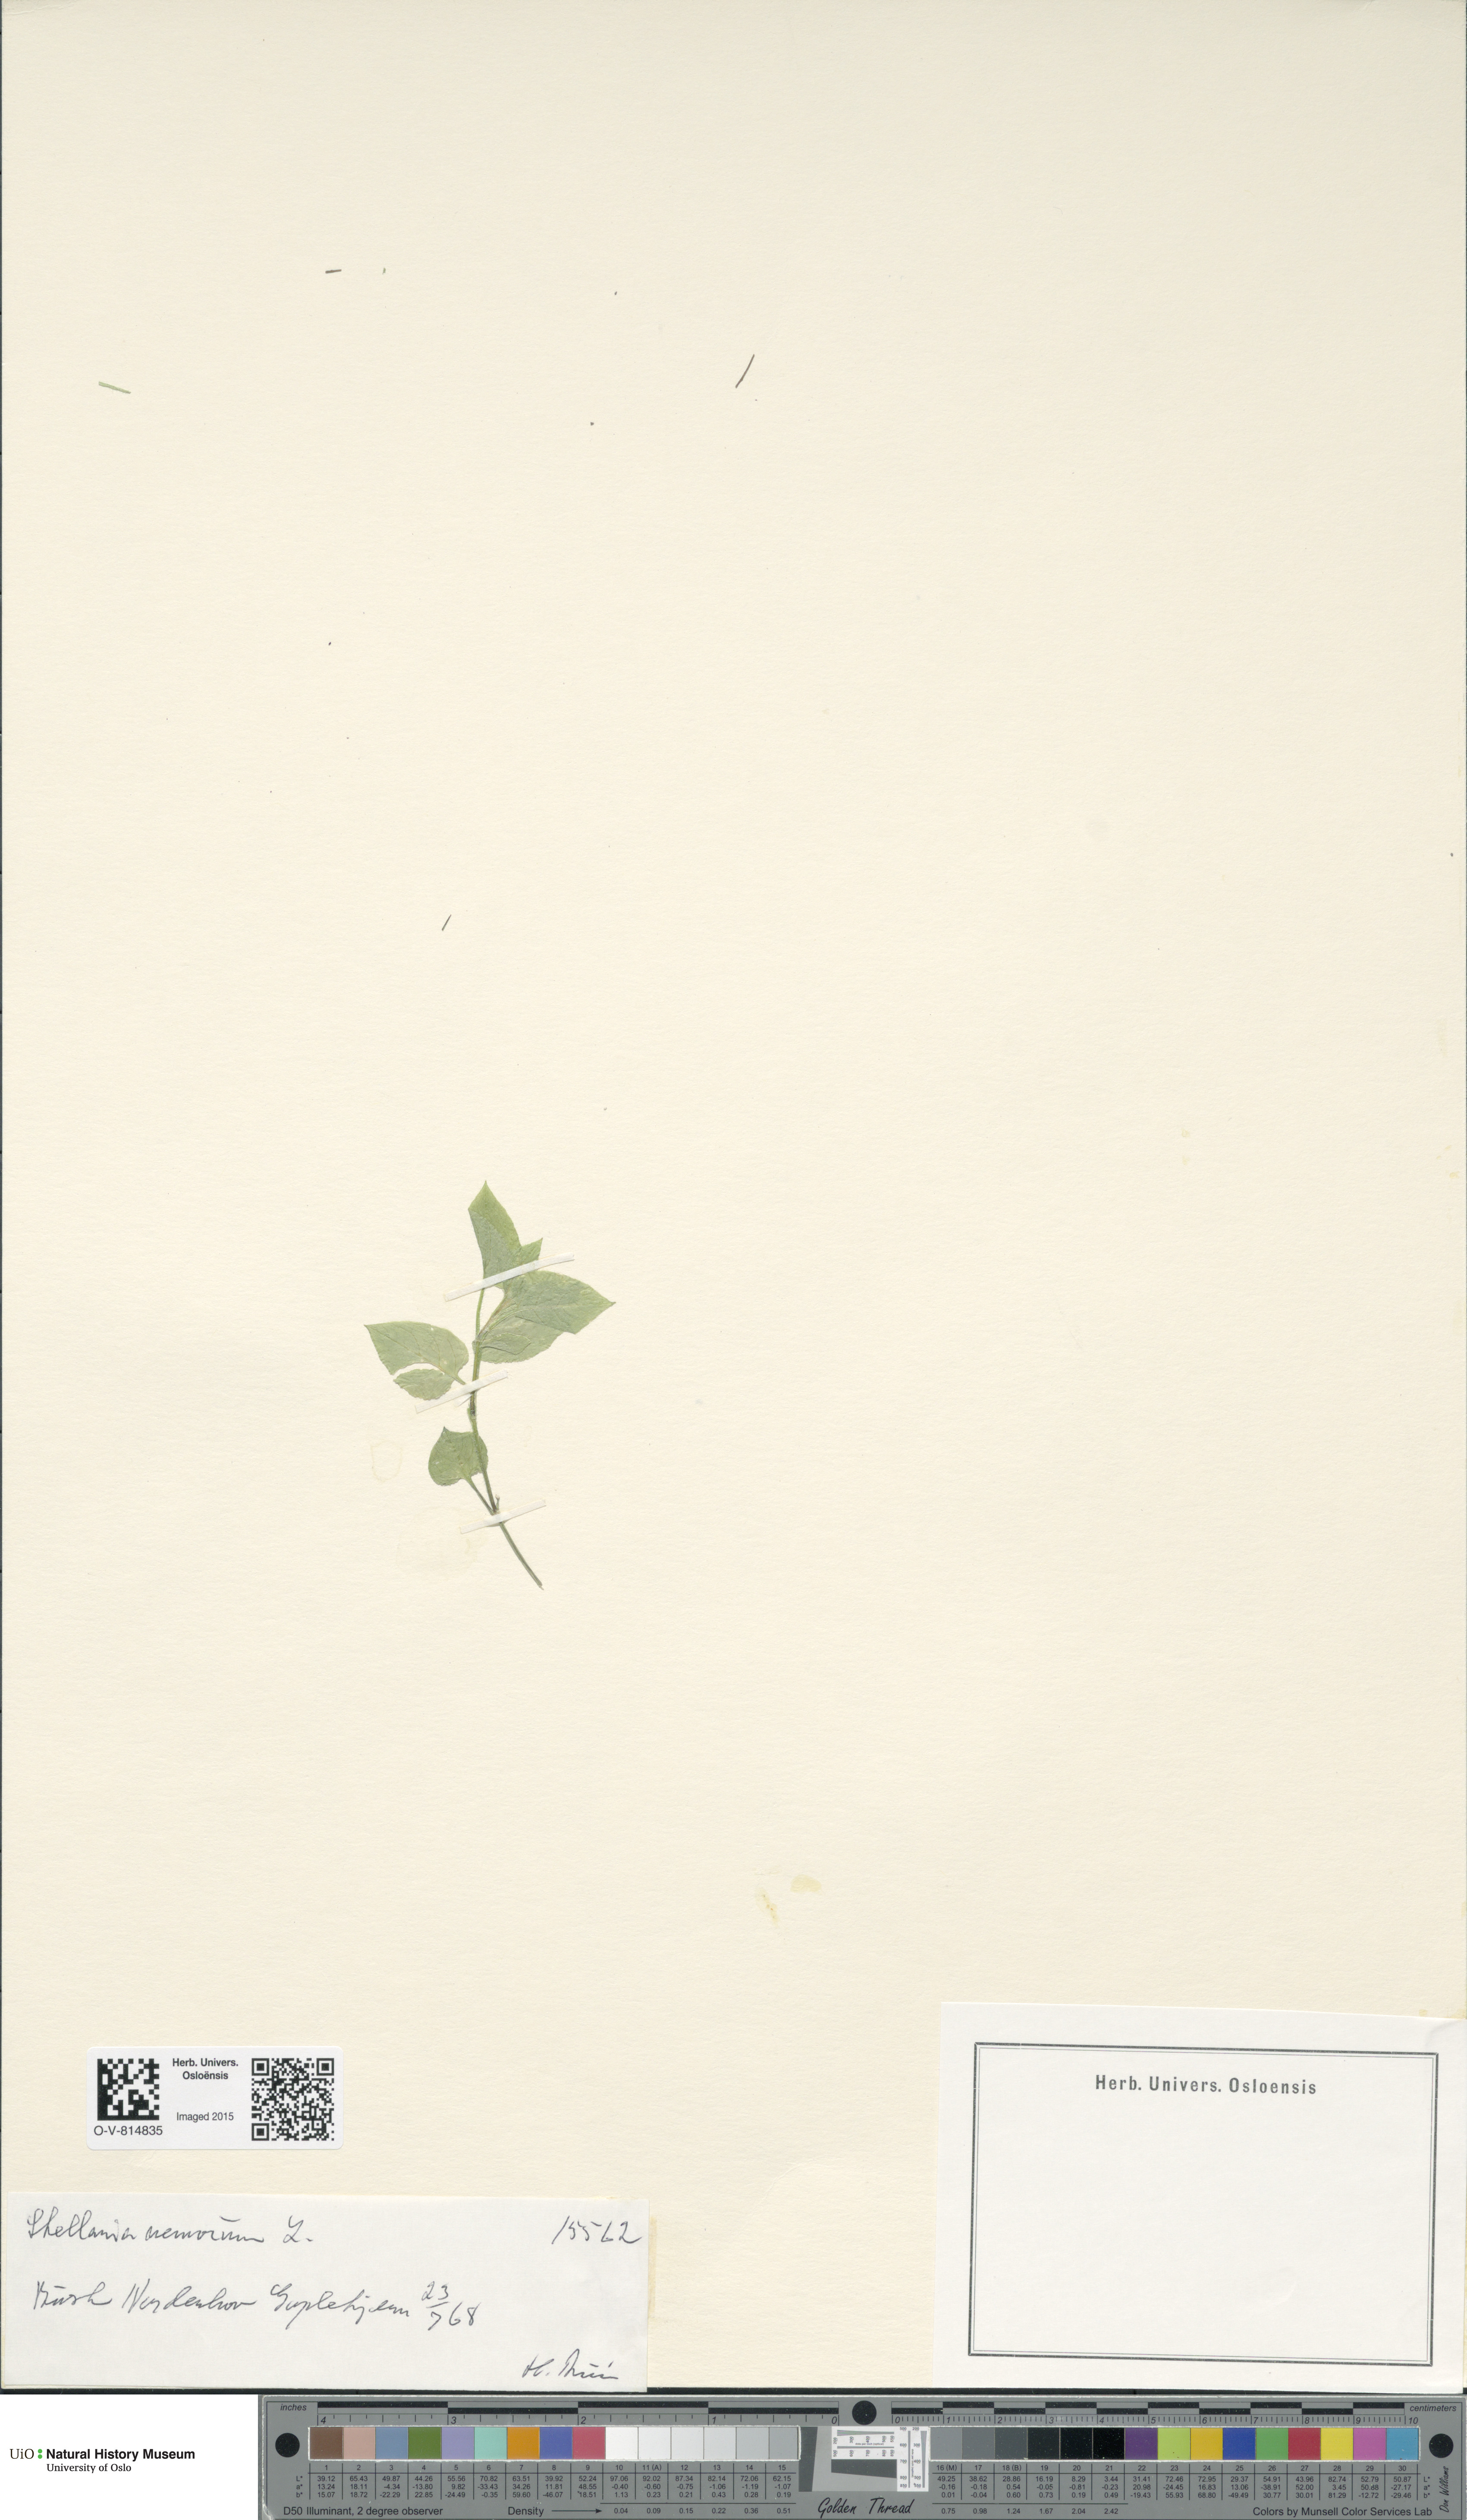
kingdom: Plantae
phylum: Tracheophyta
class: Magnoliopsida
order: Caryophyllales
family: Caryophyllaceae
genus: Stellaria
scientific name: Stellaria nemorum
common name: Wood stitchwort
